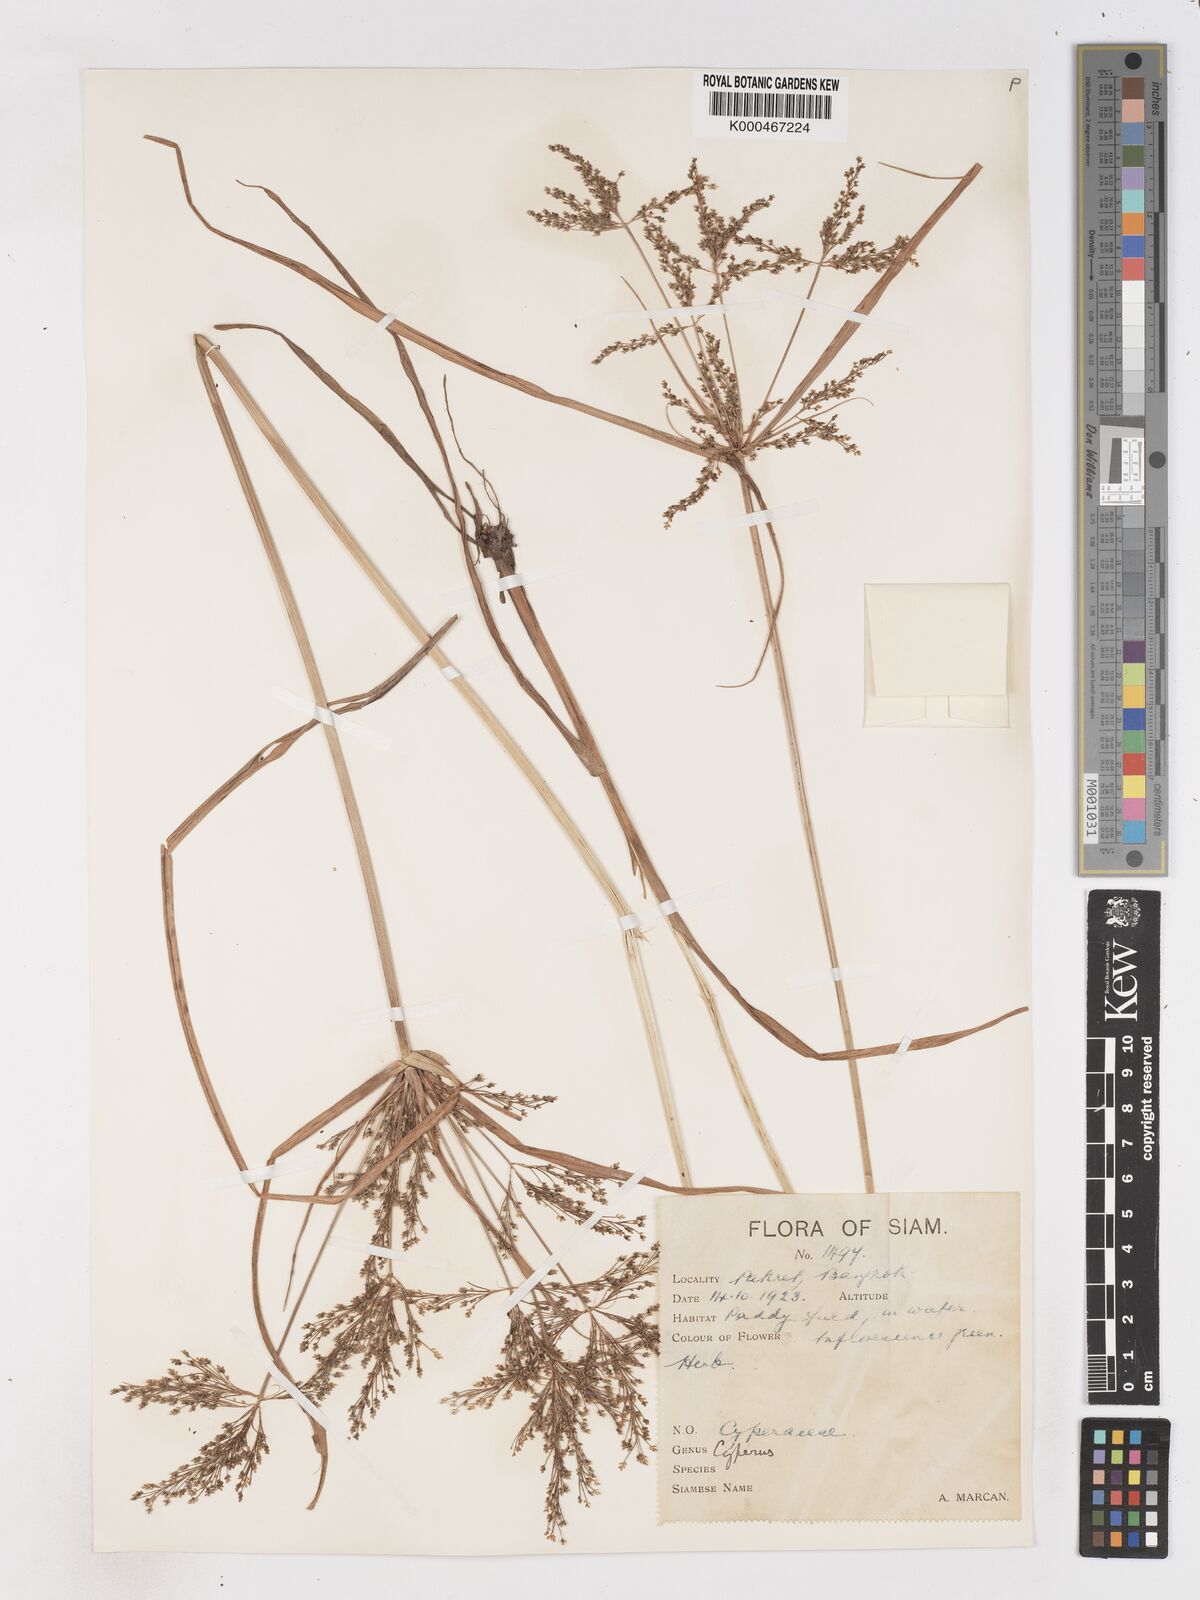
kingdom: Plantae
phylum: Tracheophyta
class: Liliopsida
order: Poales
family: Cyperaceae
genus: Cyperus
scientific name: Cyperus iria
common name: Ricefield flatsedge
